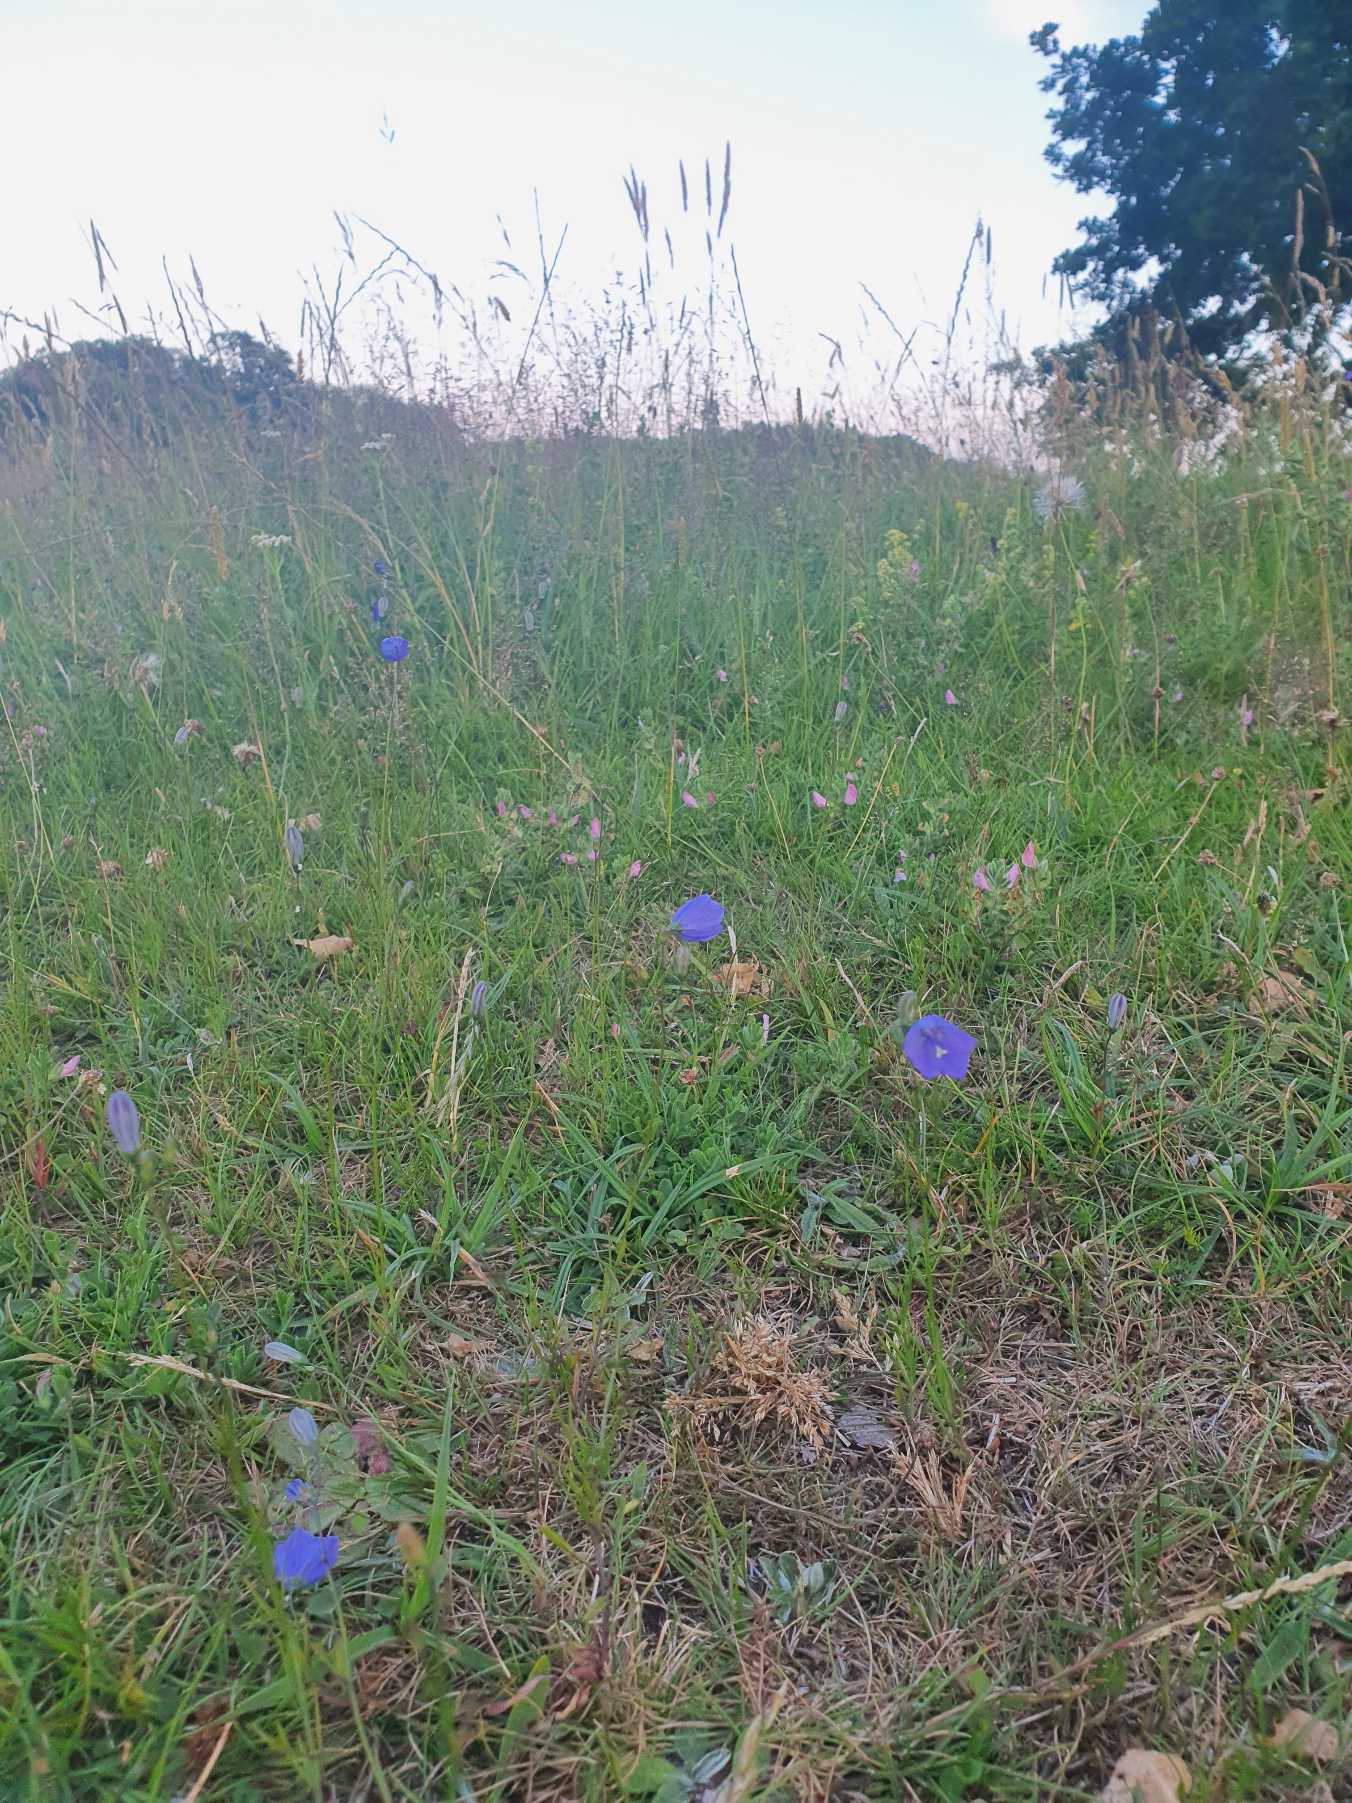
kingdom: Plantae
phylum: Tracheophyta
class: Magnoliopsida
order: Asterales
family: Campanulaceae
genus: Campanula
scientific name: Campanula rotundifolia
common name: Liden klokke
